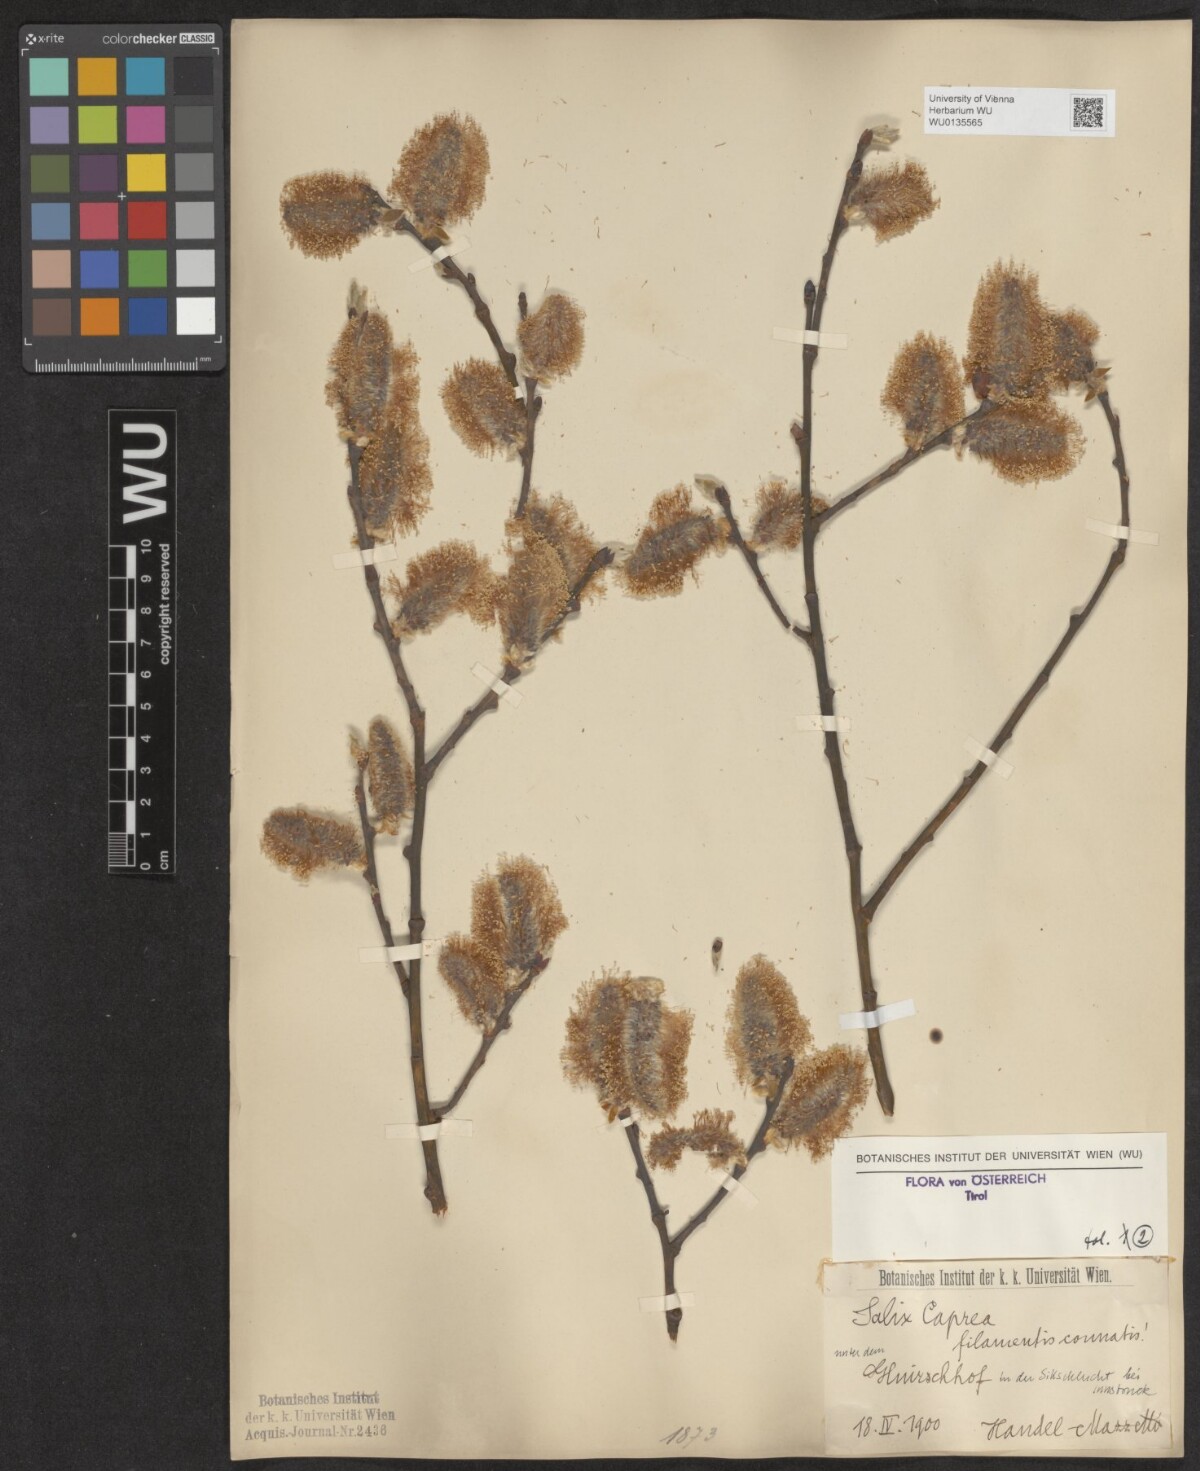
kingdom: Plantae
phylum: Tracheophyta
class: Magnoliopsida
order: Malpighiales
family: Salicaceae
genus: Salix
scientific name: Salix caprea
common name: Goat willow
